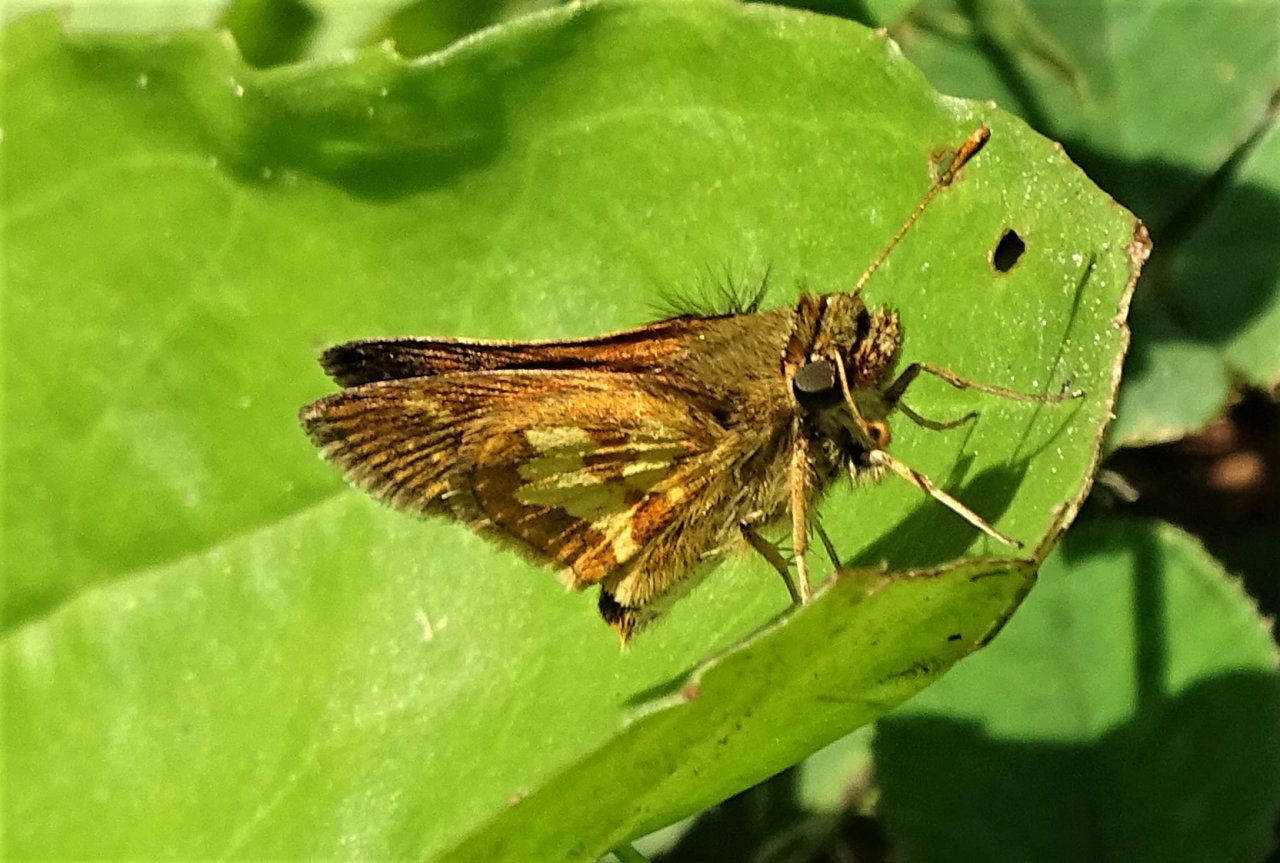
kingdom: Animalia
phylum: Arthropoda
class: Insecta
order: Lepidoptera
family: Hesperiidae
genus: Polites
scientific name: Polites coras
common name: Peck's Skipper
